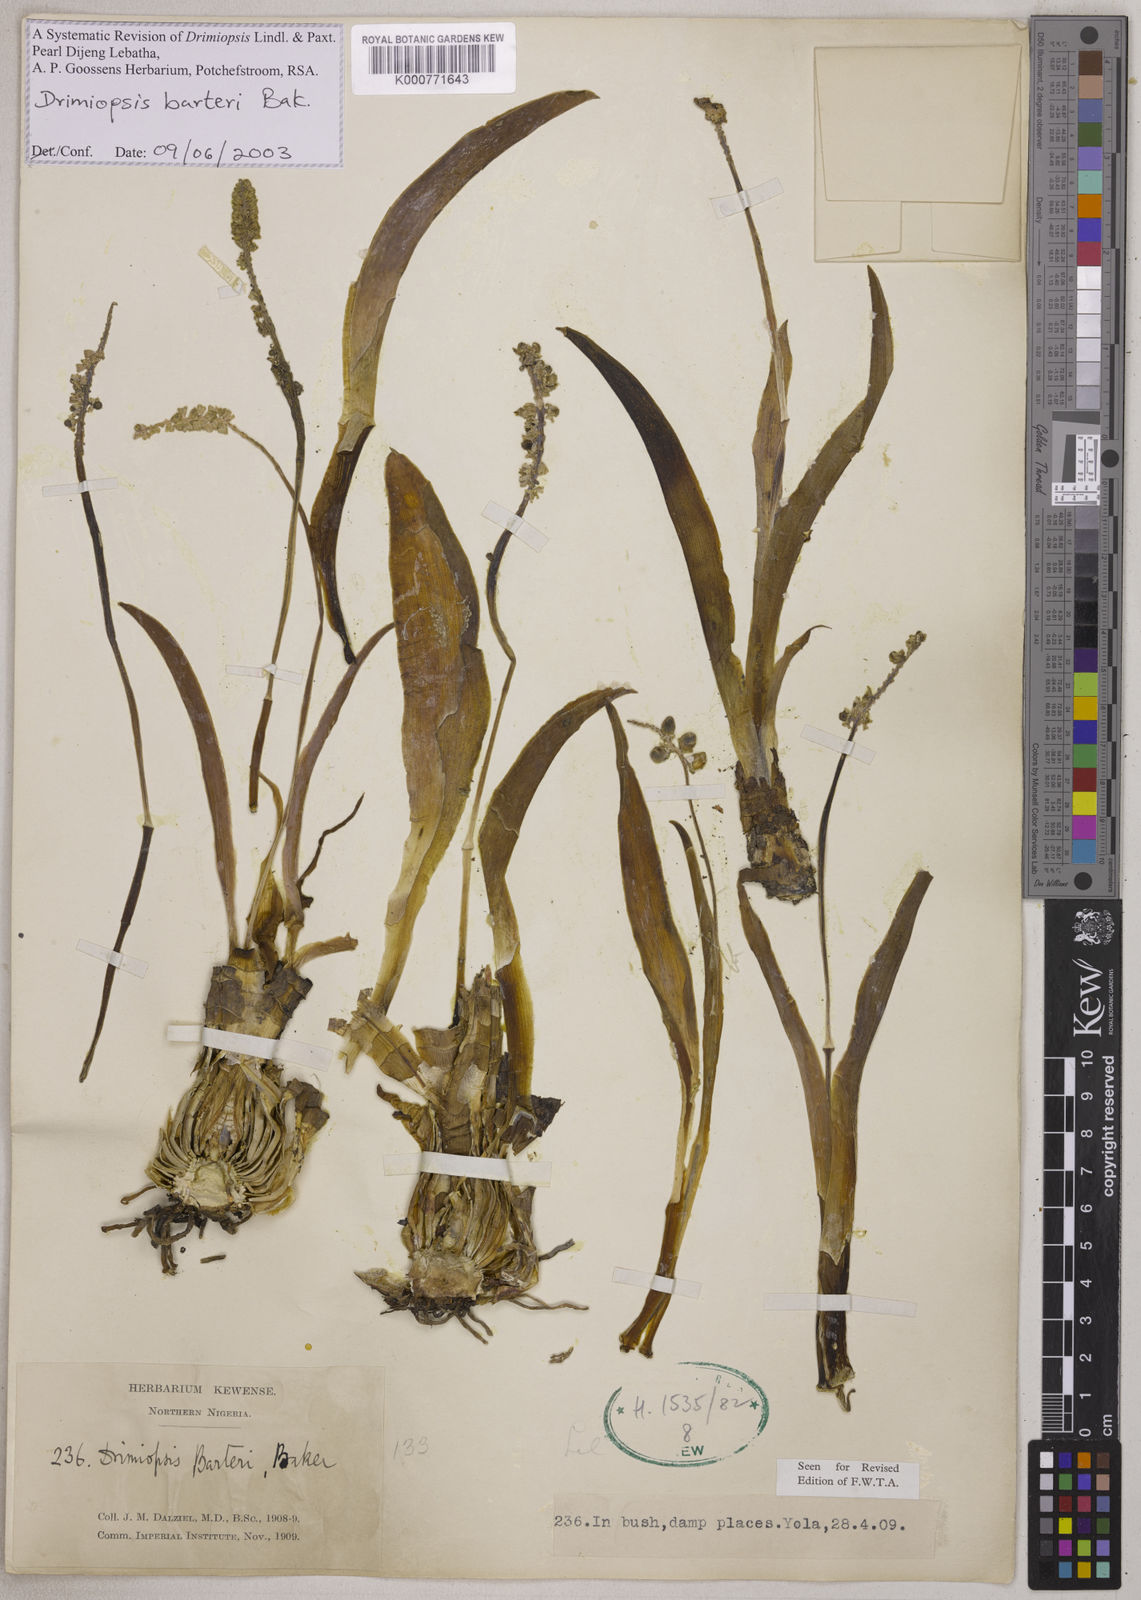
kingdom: Plantae
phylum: Tracheophyta
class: Liliopsida
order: Asparagales
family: Asparagaceae
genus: Drimiopsis
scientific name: Drimiopsis barteri
